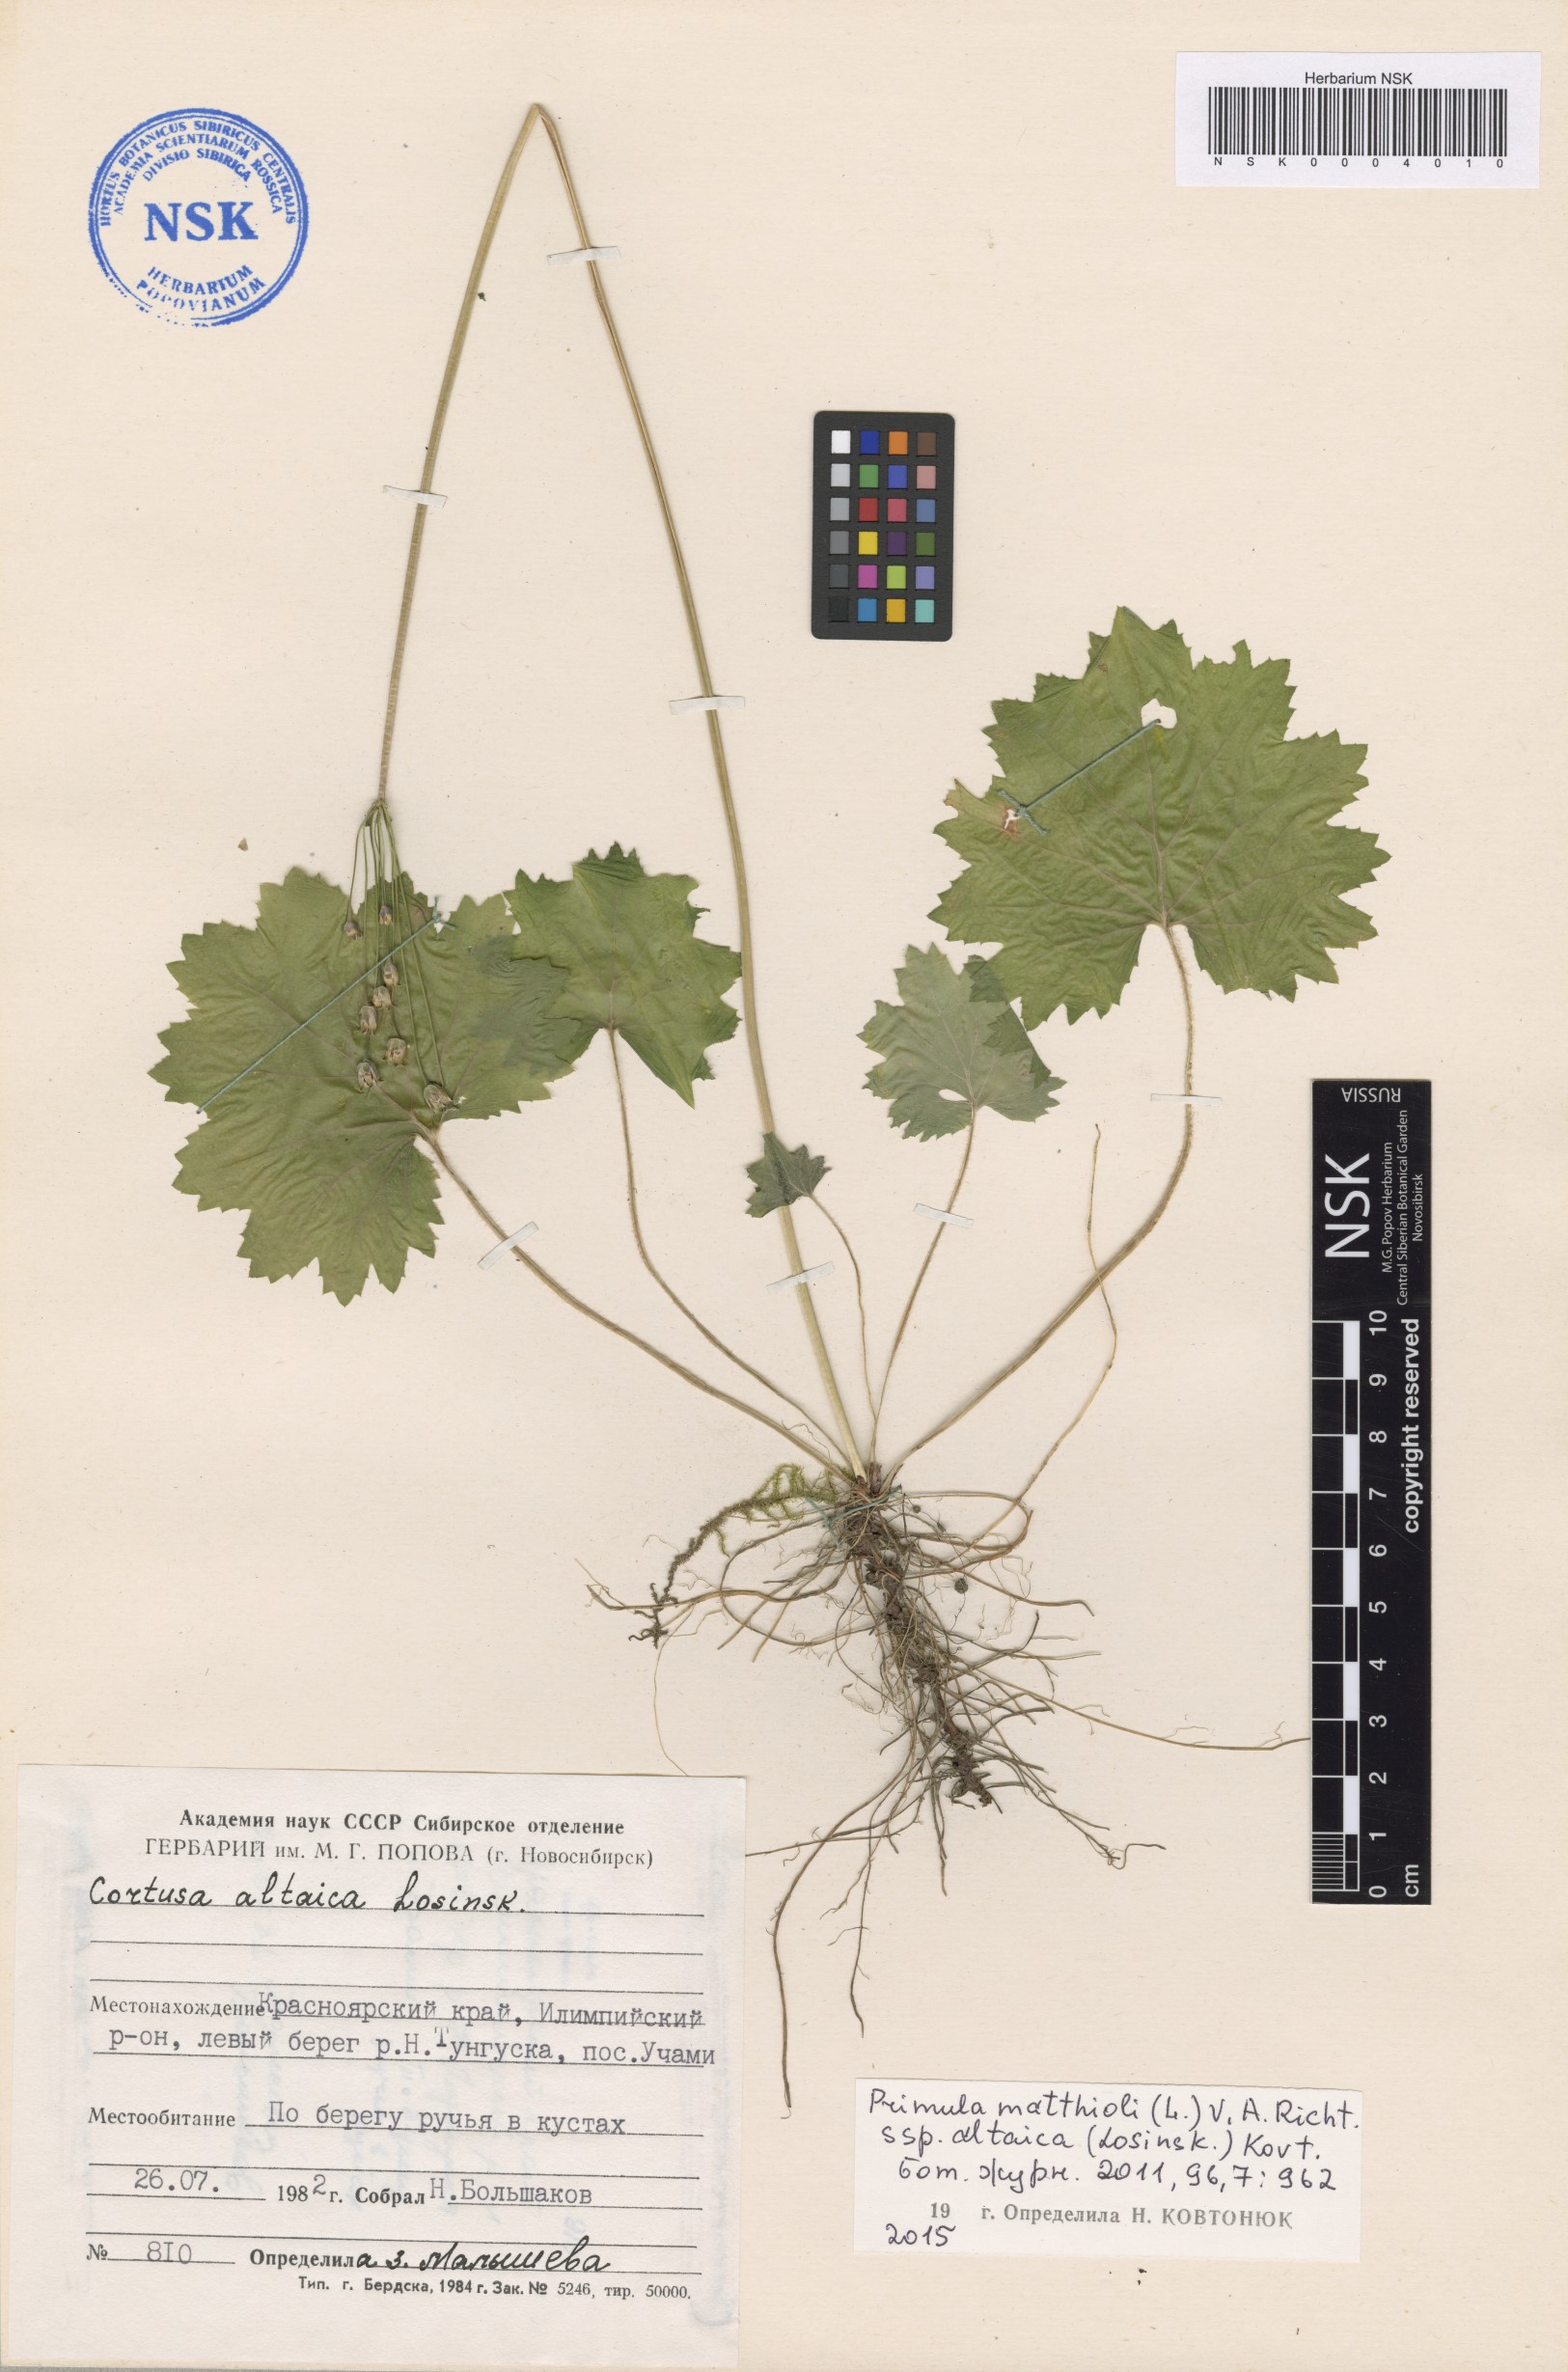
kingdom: Plantae
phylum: Tracheophyta
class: Magnoliopsida
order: Ericales
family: Primulaceae
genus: Primula
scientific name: Primula matthioli
